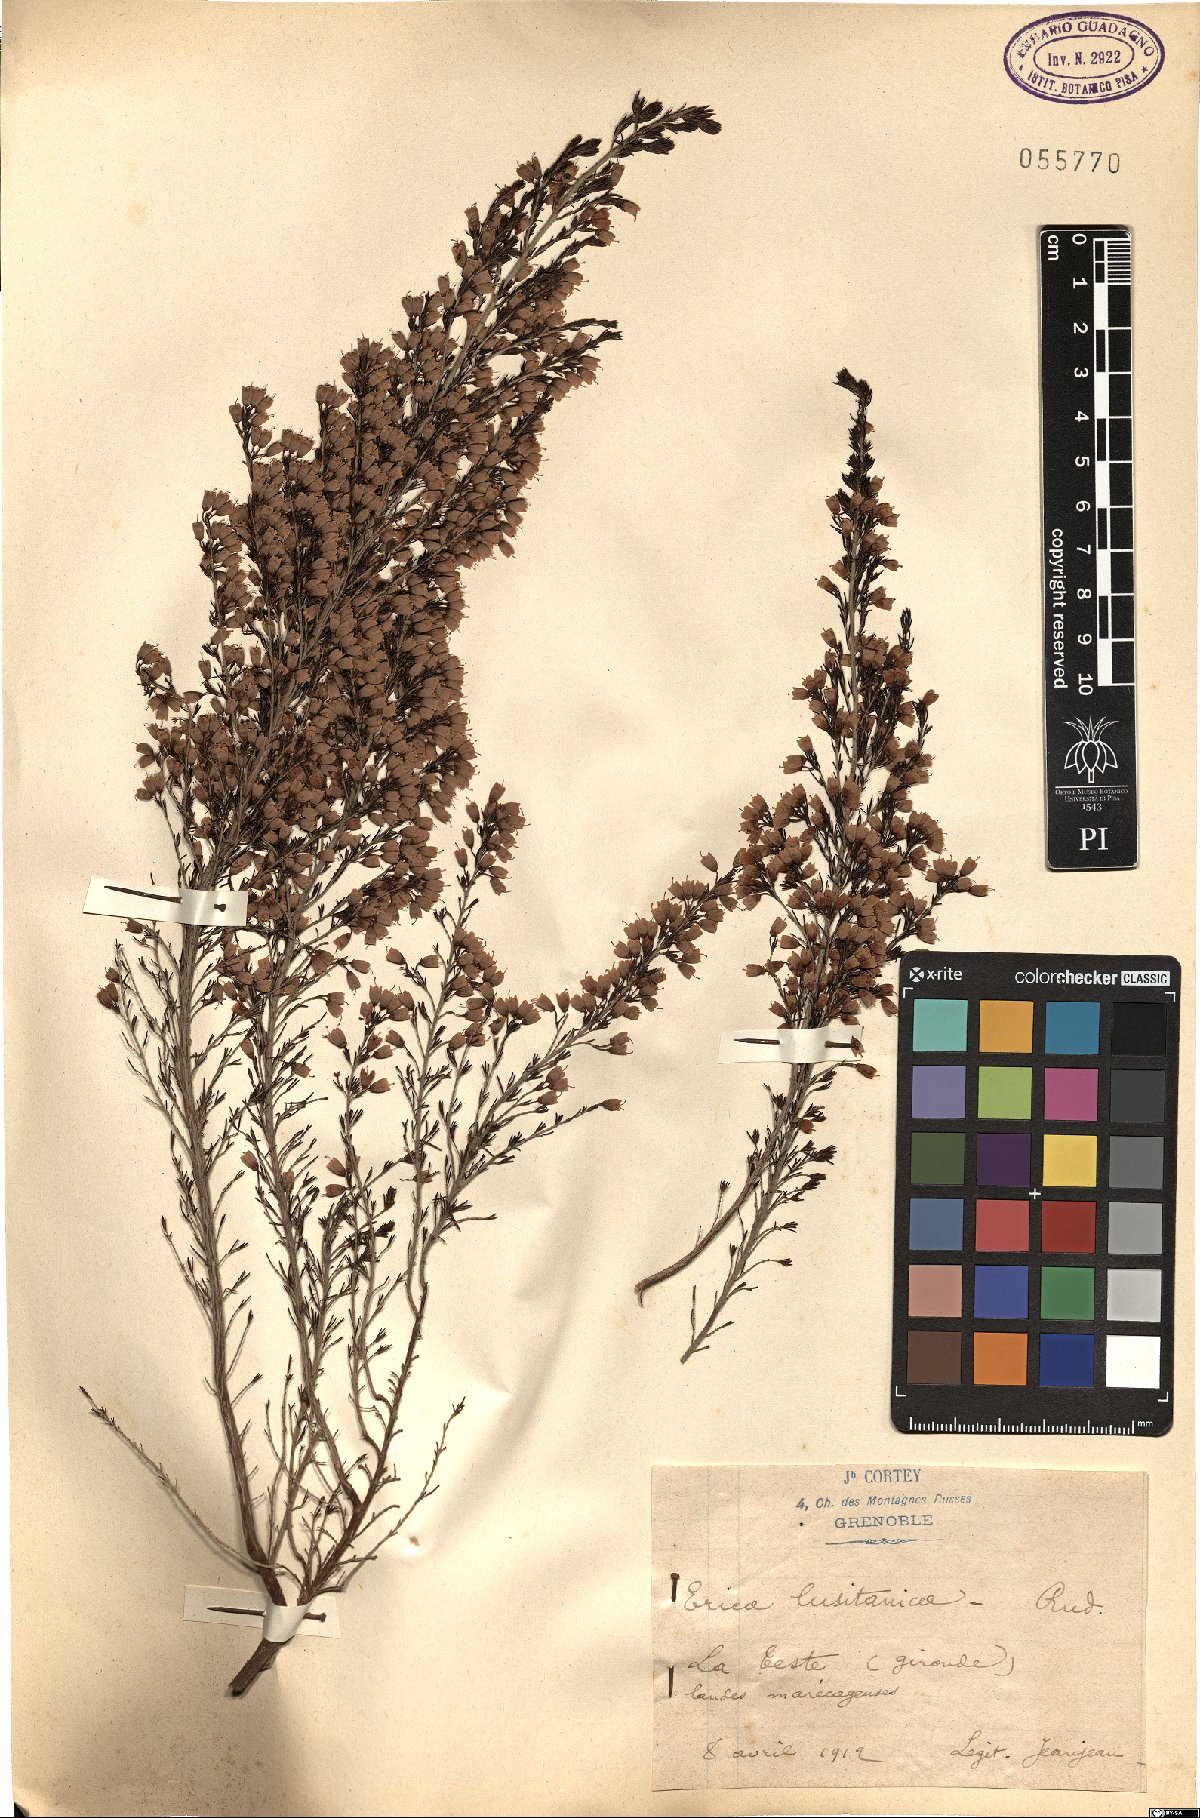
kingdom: Plantae
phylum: Tracheophyta
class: Magnoliopsida
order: Ericales
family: Ericaceae
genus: Erica
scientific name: Erica lusitanica
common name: Spanish heath
